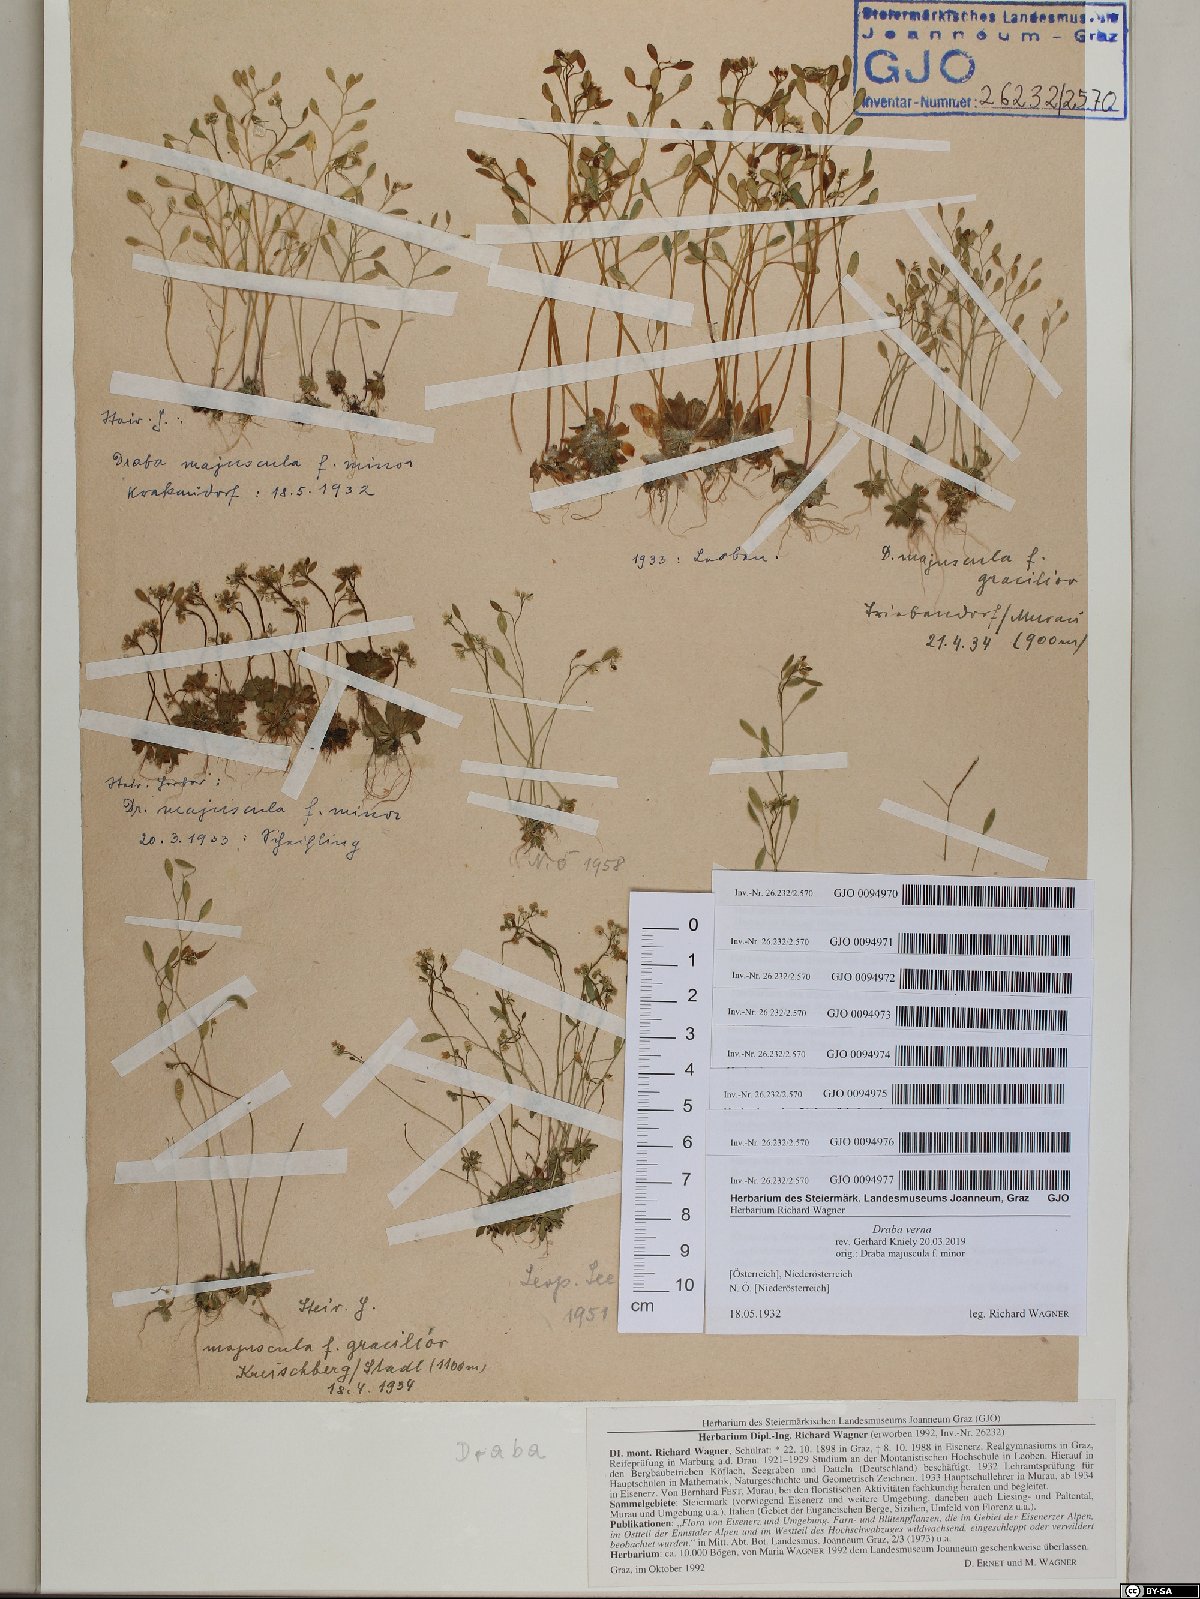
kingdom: Plantae
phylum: Tracheophyta
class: Magnoliopsida
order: Brassicales
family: Brassicaceae
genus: Draba
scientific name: Draba verna
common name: Spring draba
